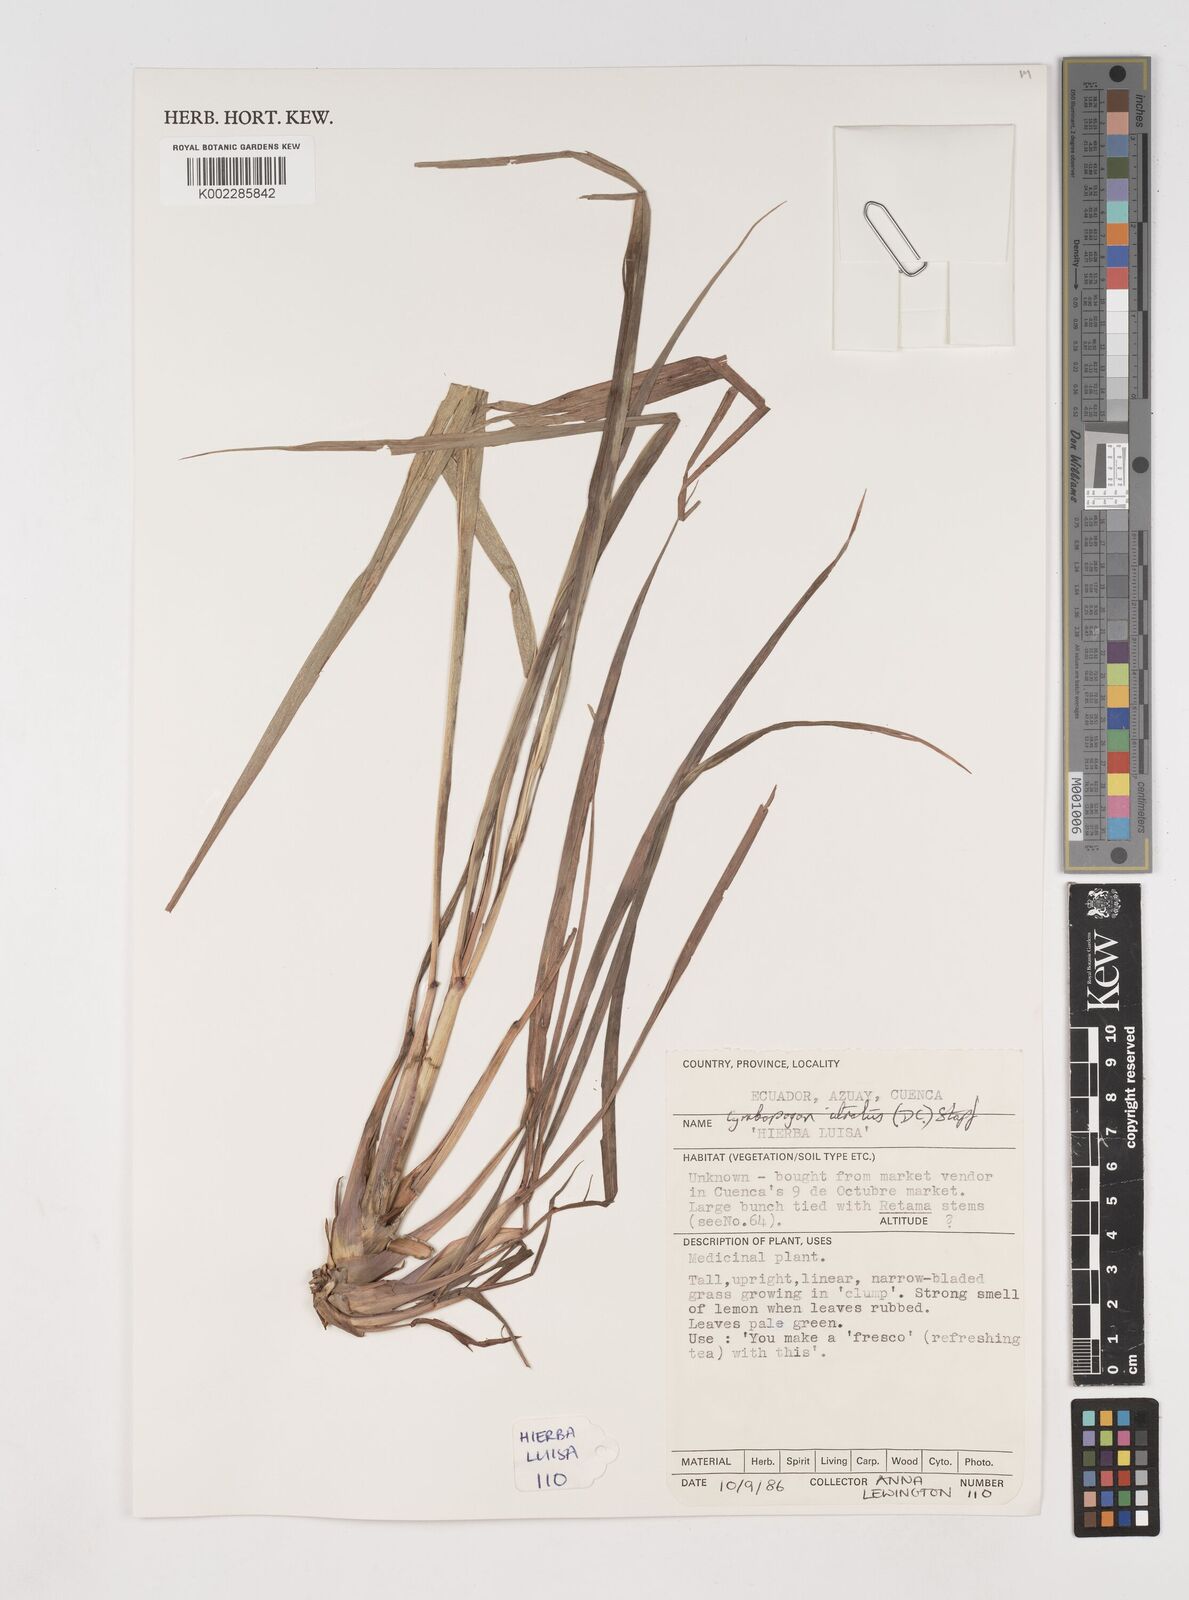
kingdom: Plantae
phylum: Tracheophyta
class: Liliopsida
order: Poales
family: Poaceae
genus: Cymbopogon
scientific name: Cymbopogon citratus
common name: Lemon grass
